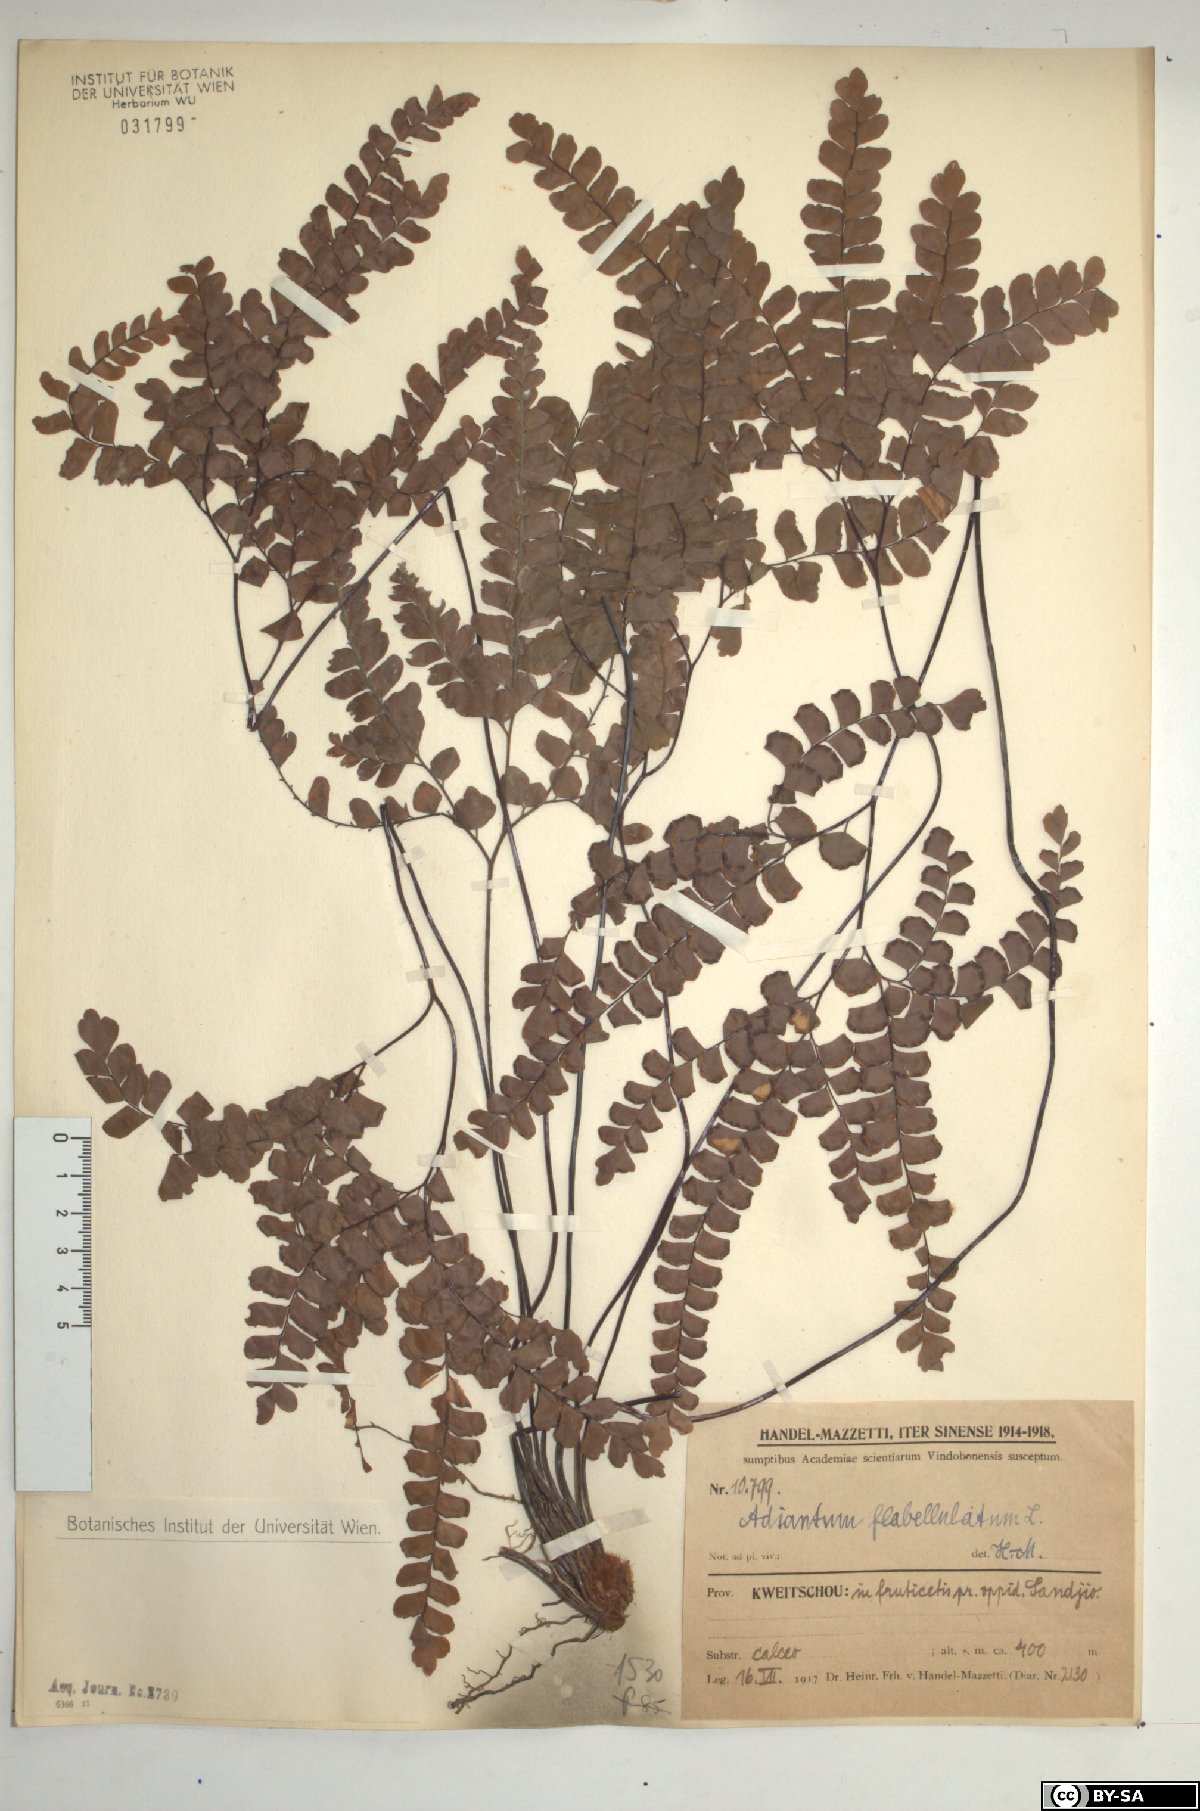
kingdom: Plantae
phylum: Tracheophyta
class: Polypodiopsida
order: Polypodiales
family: Pteridaceae
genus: Adiantum
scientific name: Adiantum flabellulatum
